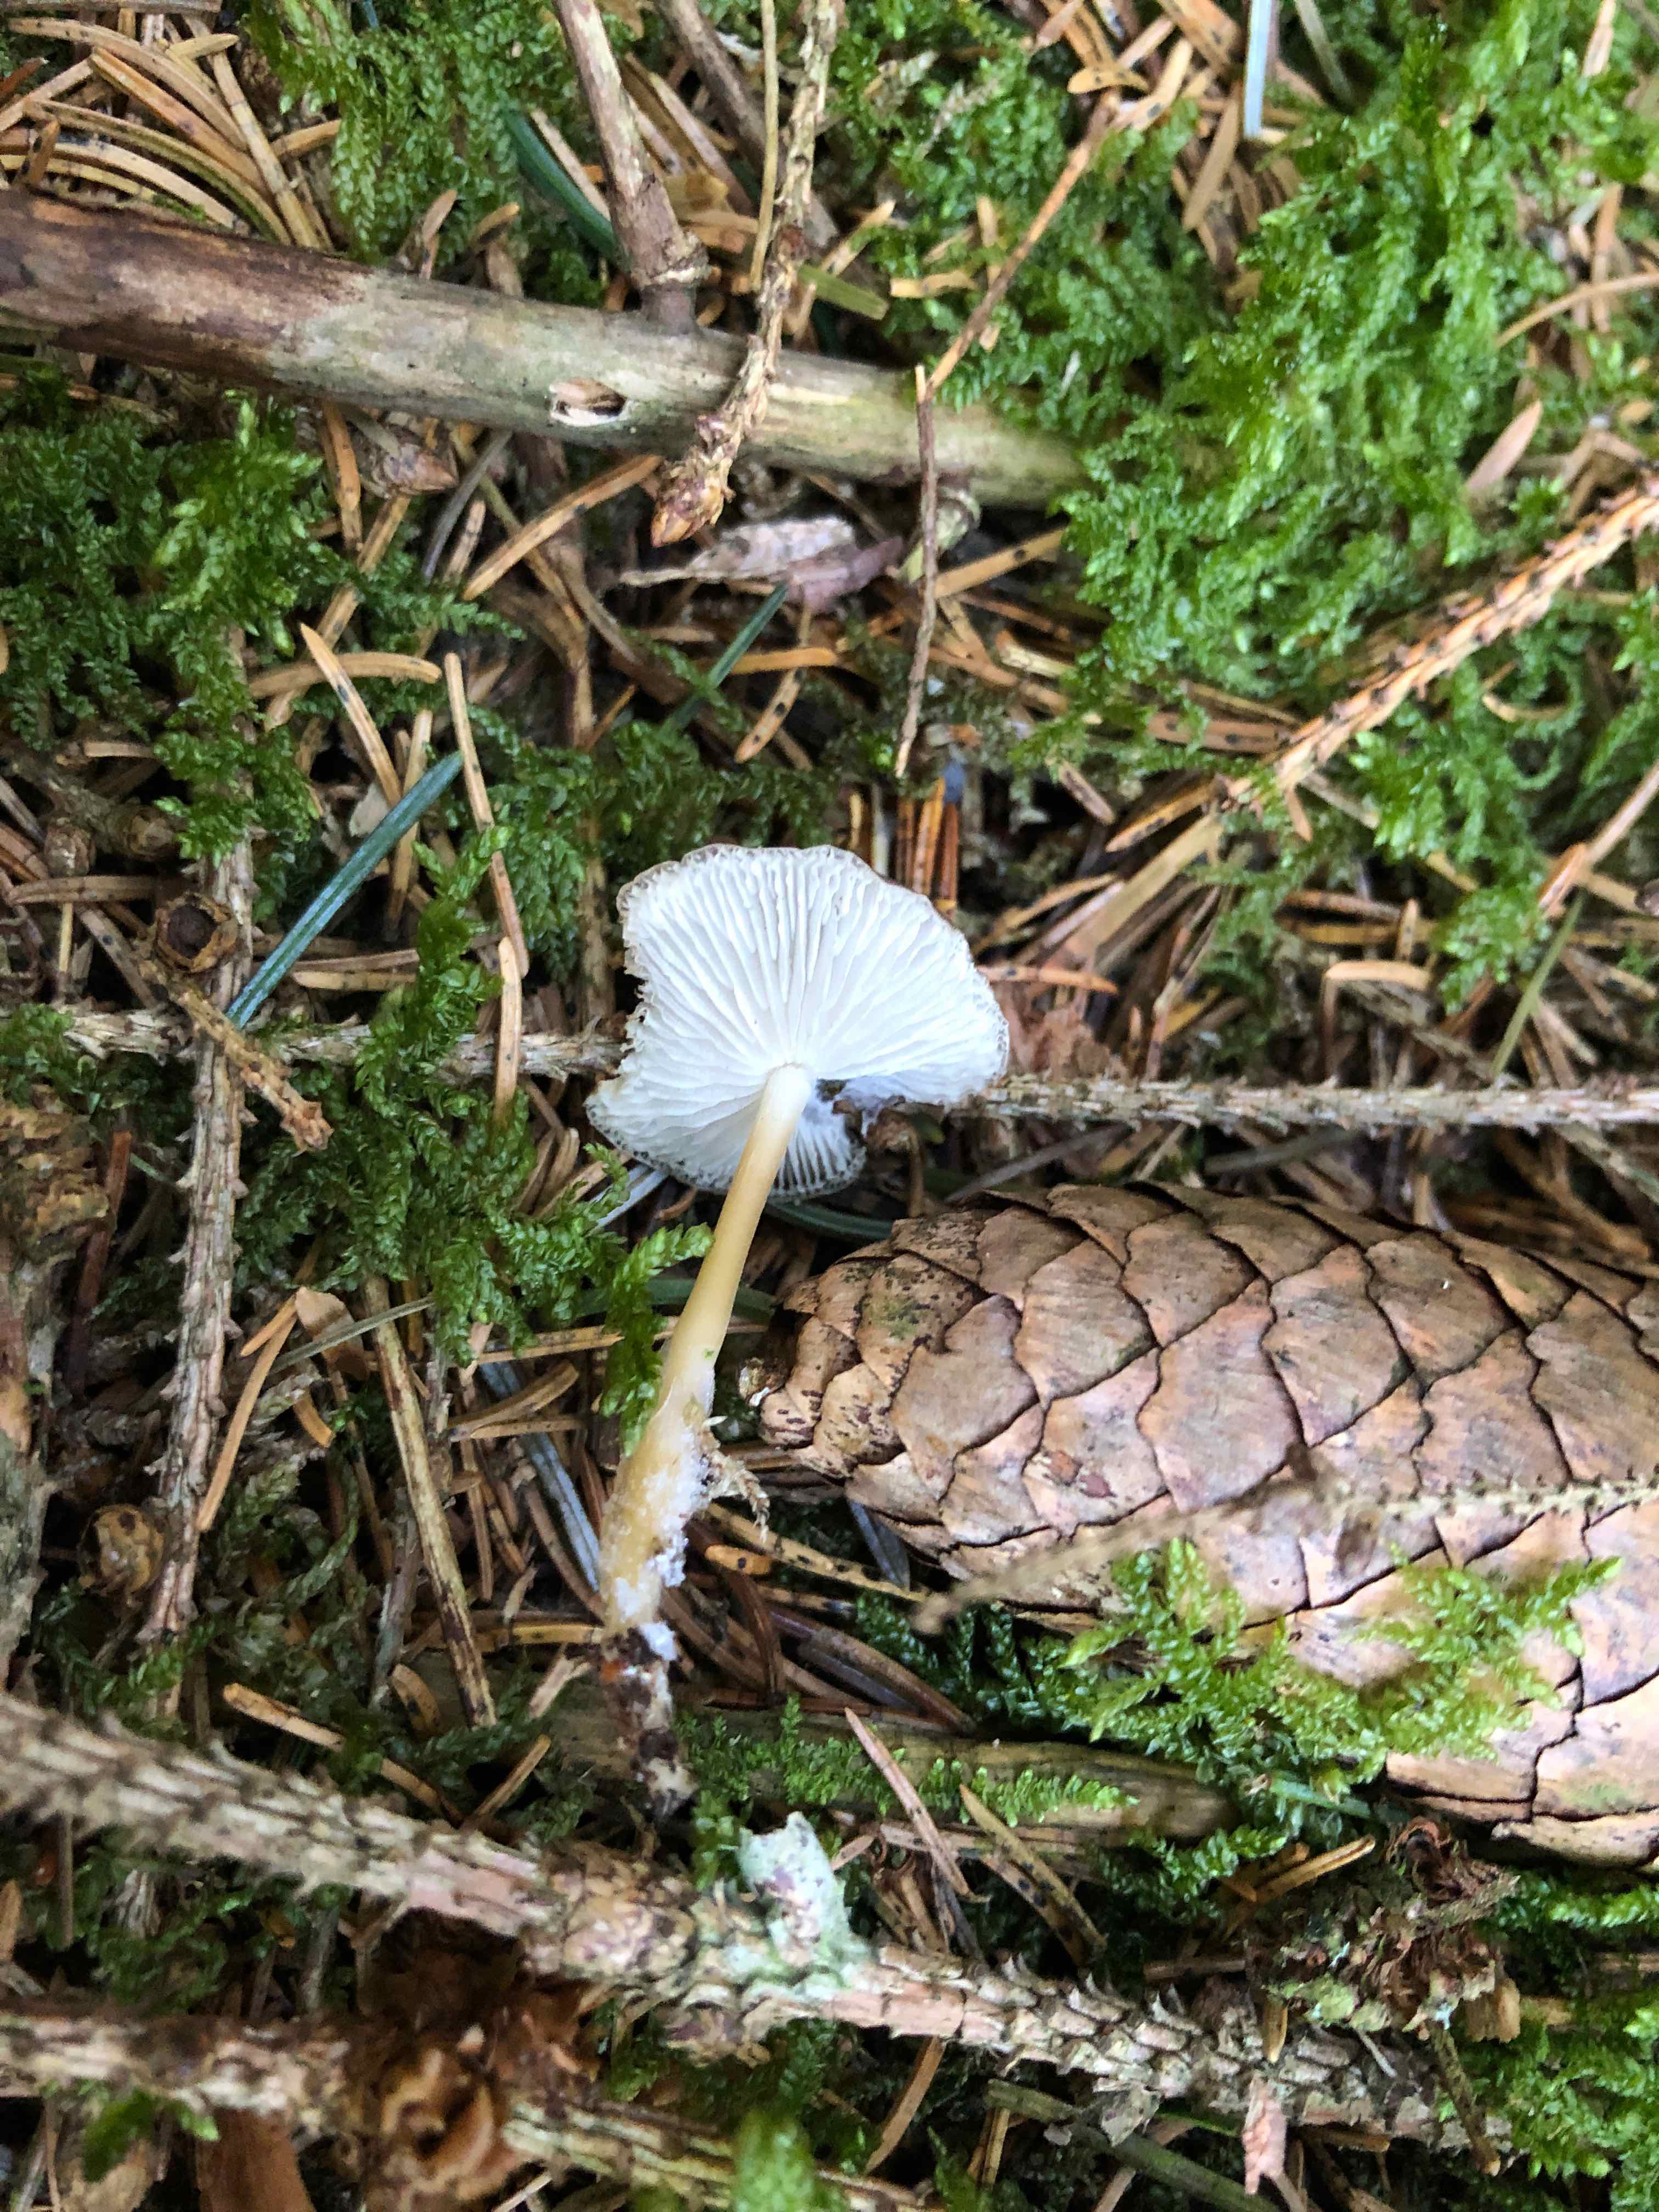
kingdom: Fungi
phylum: Basidiomycota
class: Agaricomycetes
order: Agaricales
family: Physalacriaceae
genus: Strobilurus
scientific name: Strobilurus esculentus
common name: gran-koglehat
